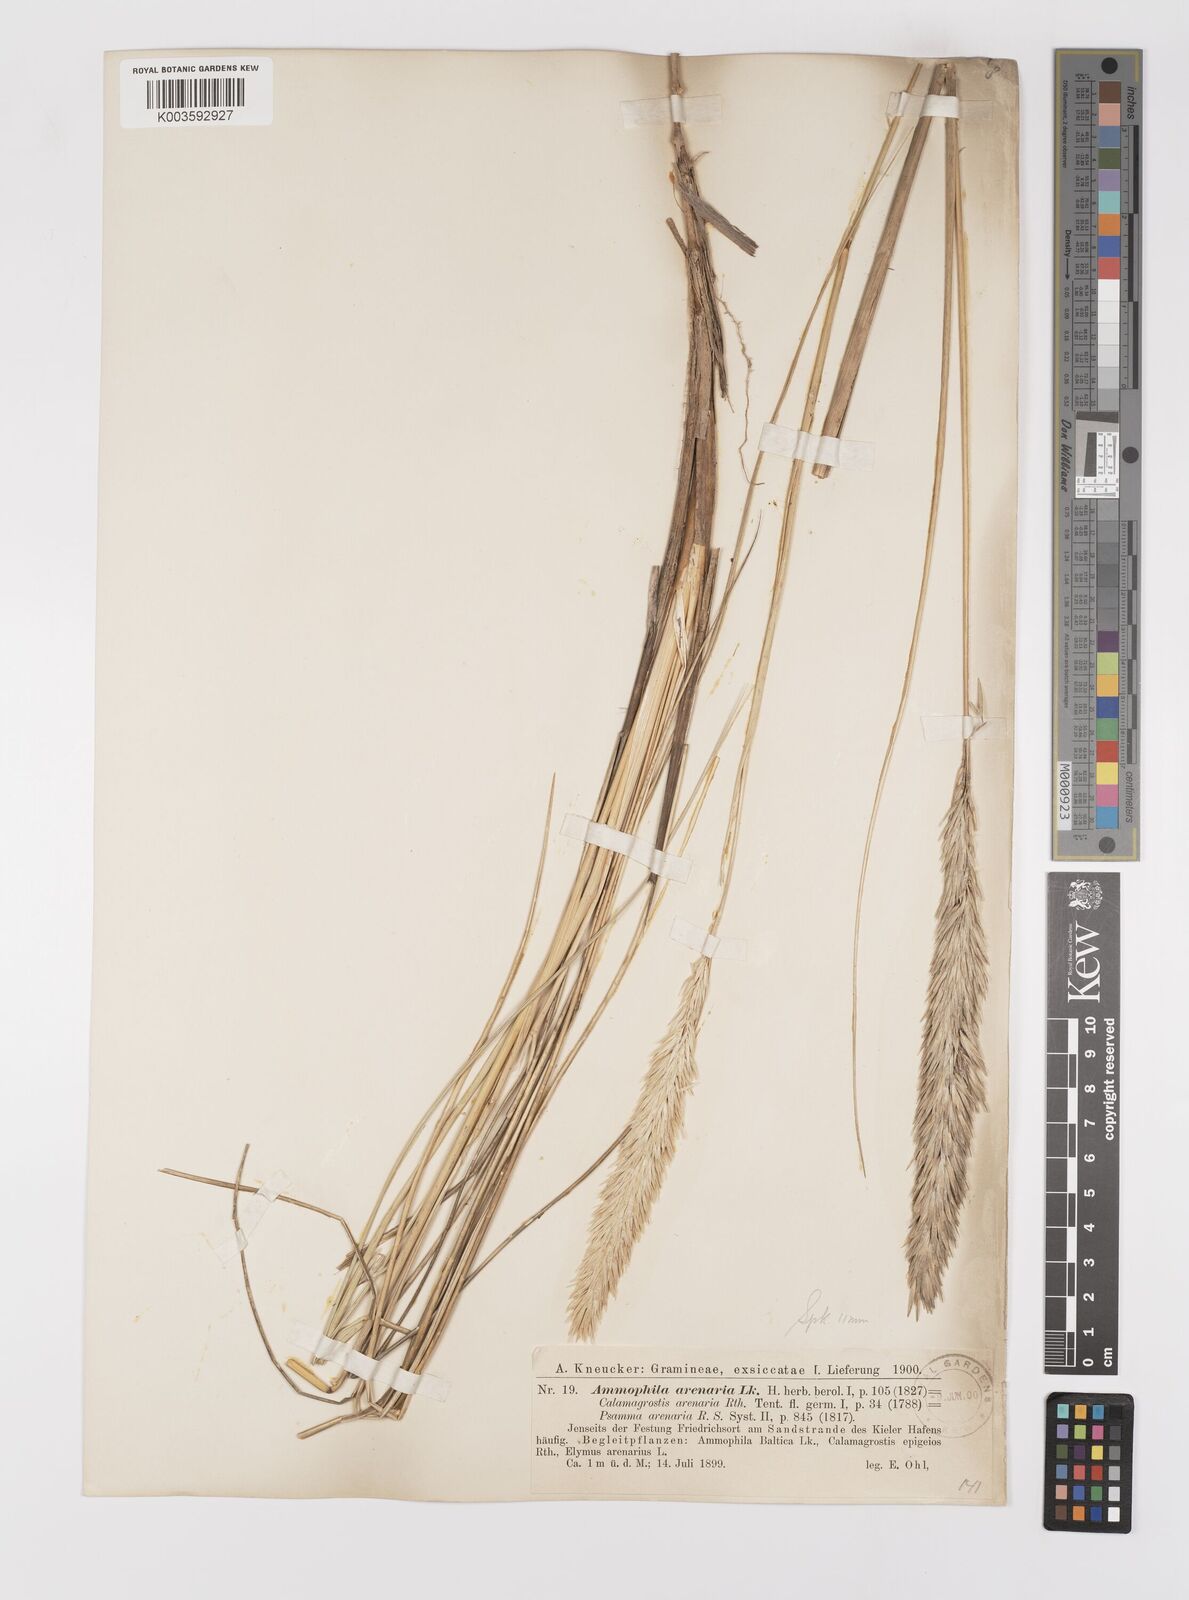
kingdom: Plantae
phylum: Tracheophyta
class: Liliopsida
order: Poales
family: Poaceae
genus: Calamagrostis
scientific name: Calamagrostis arenaria
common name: European beachgrass
